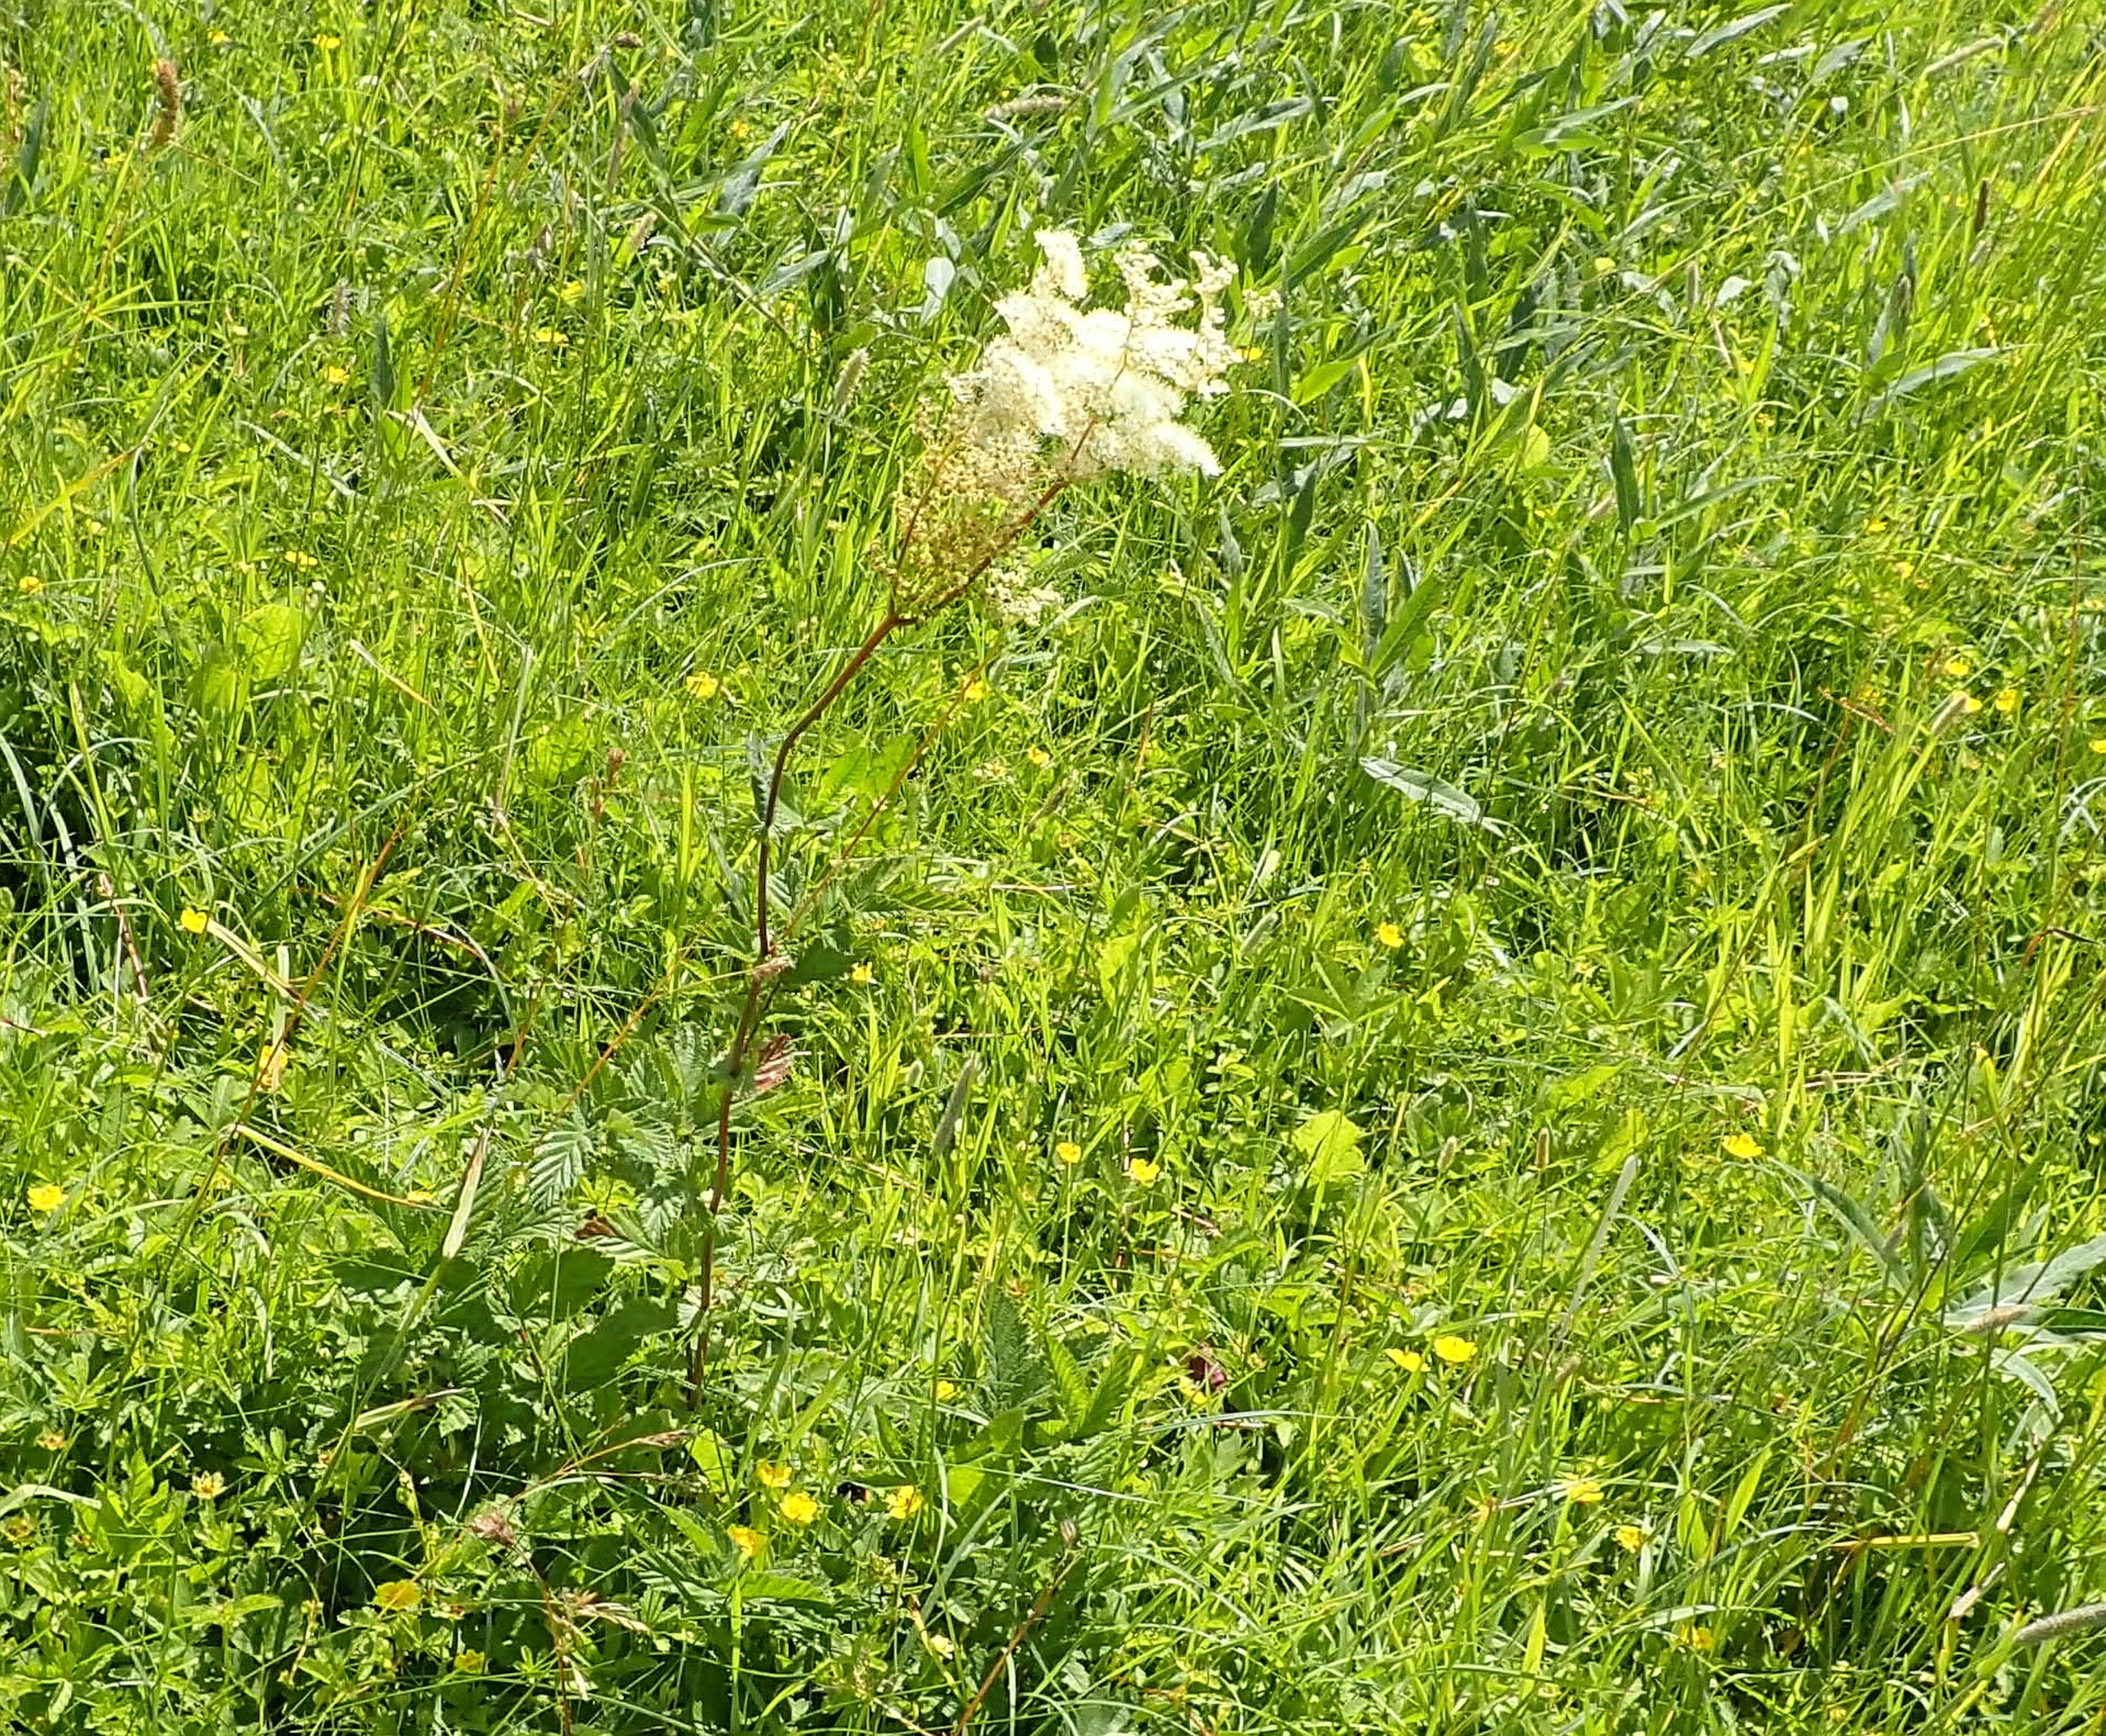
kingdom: Plantae
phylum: Tracheophyta
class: Magnoliopsida
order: Rosales
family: Rosaceae
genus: Filipendula
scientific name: Filipendula ulmaria
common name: Almindelig mjødurt
